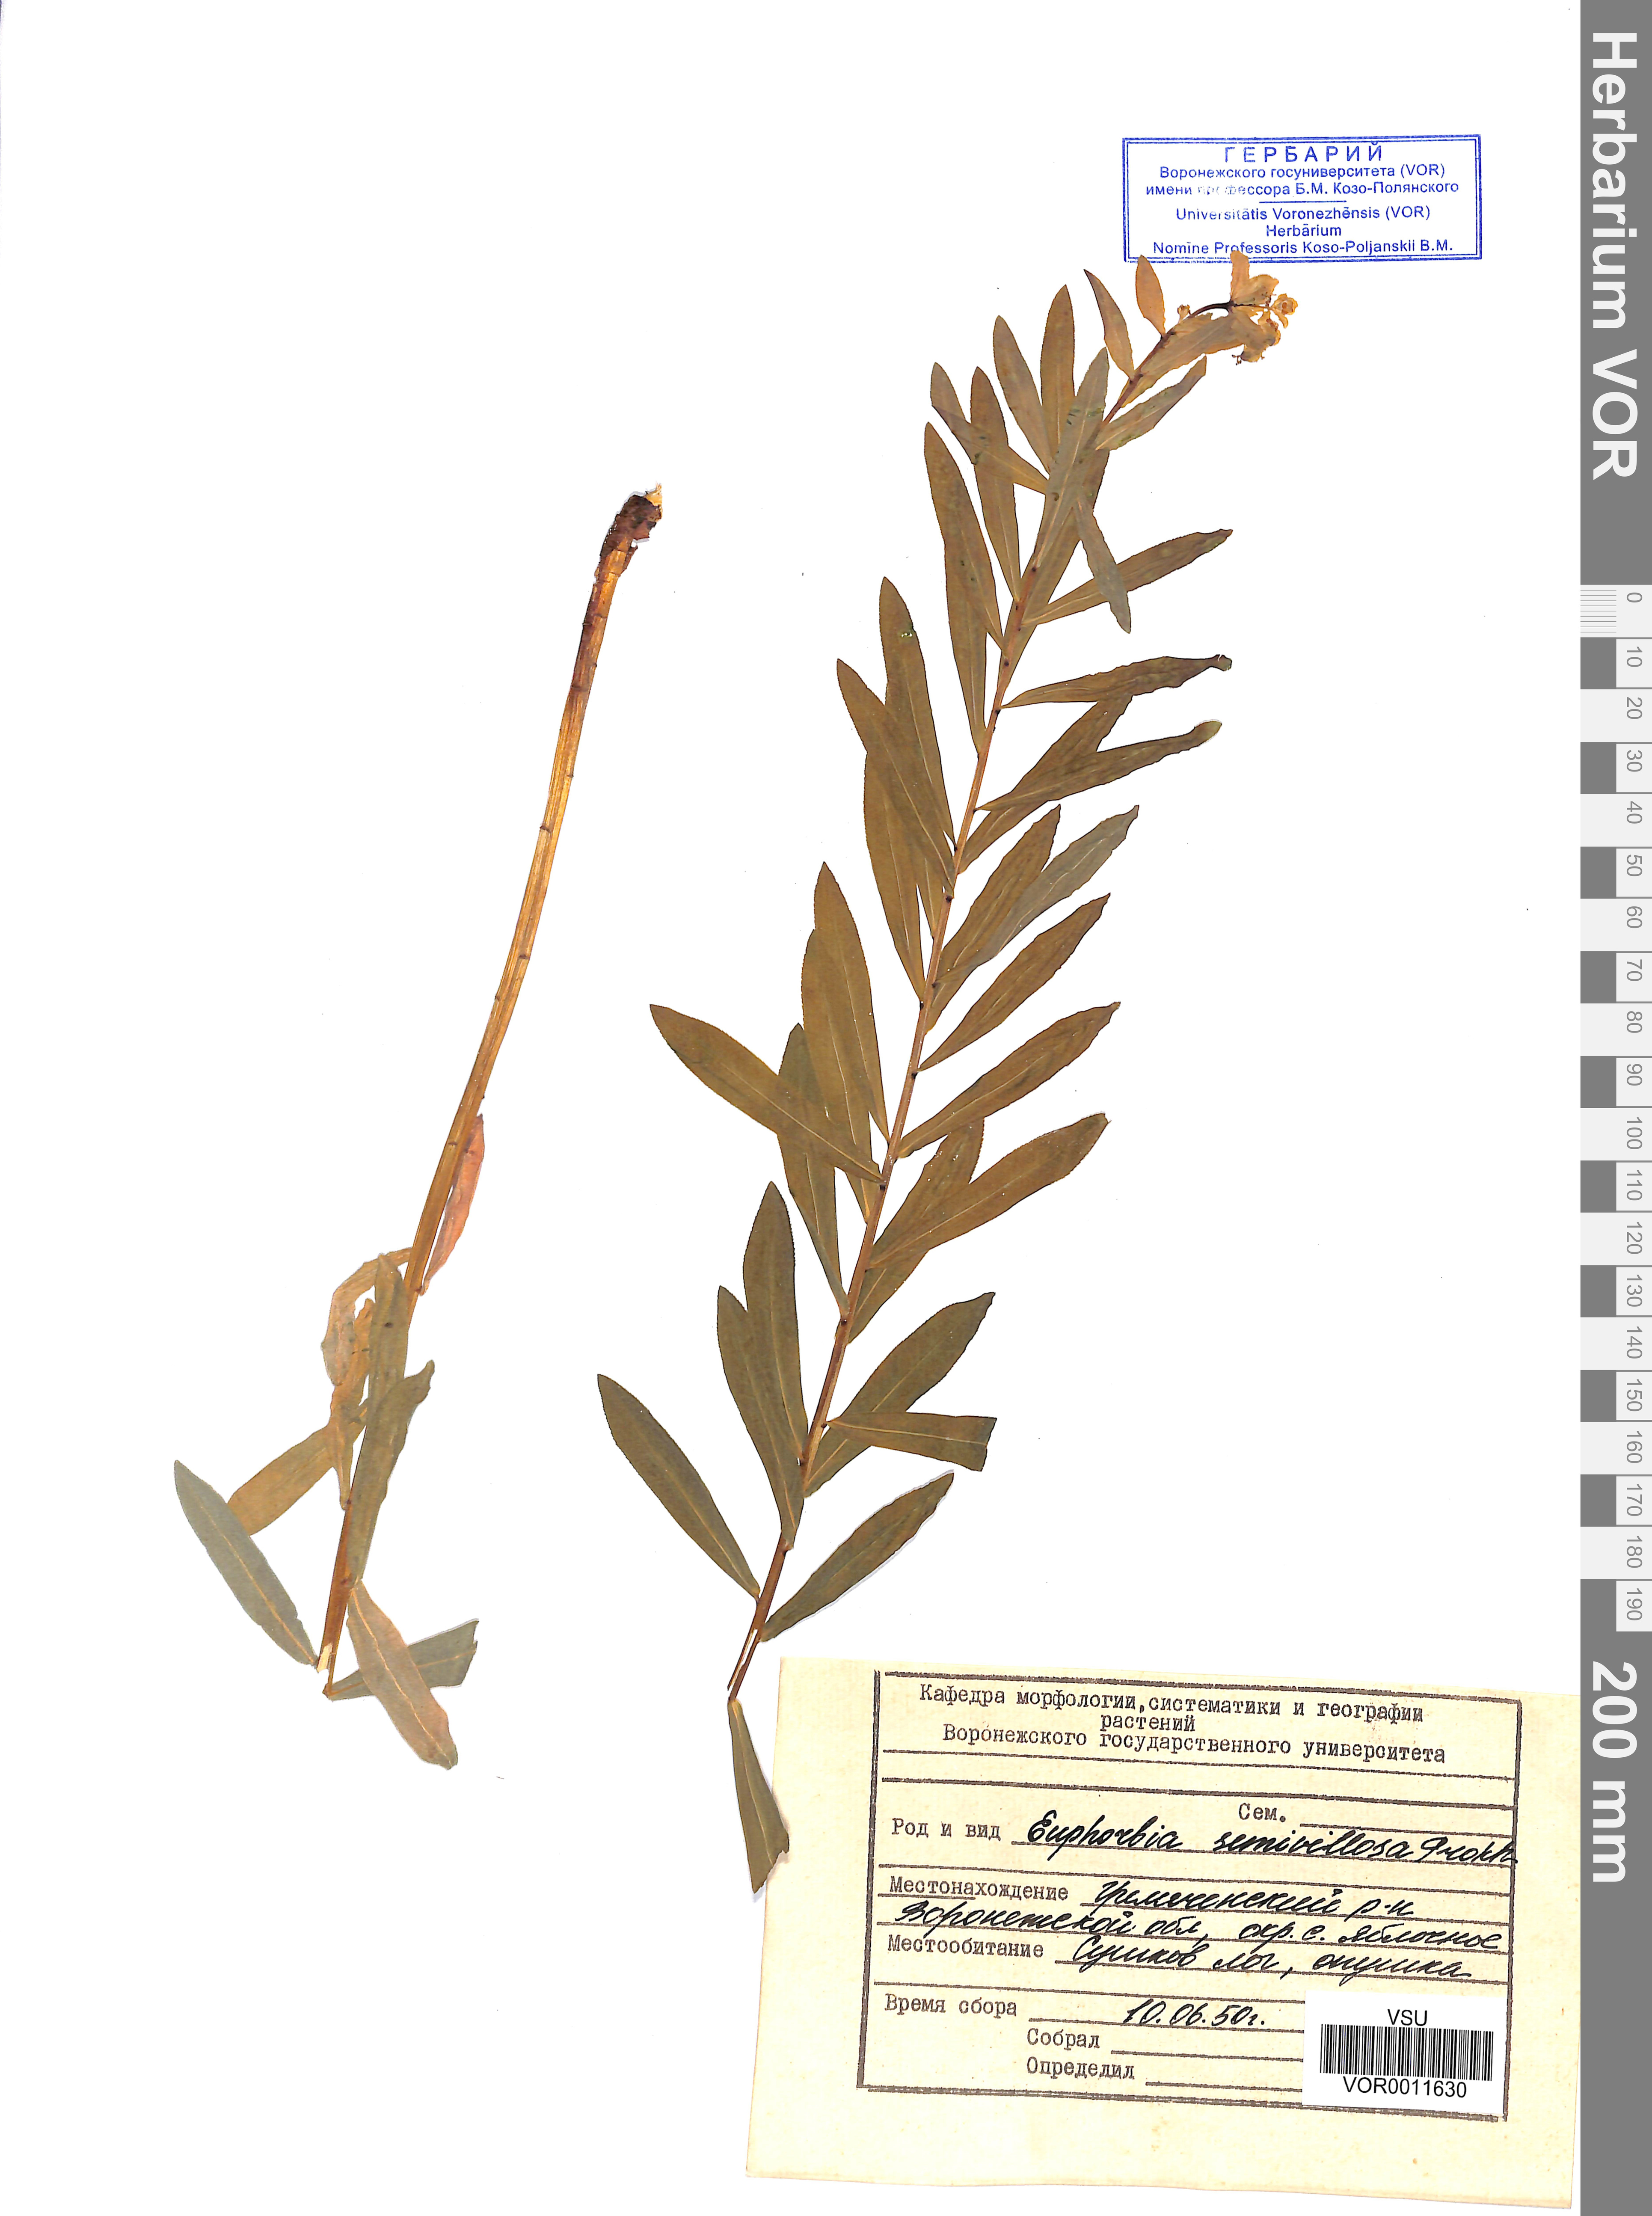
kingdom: Plantae
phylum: Tracheophyta
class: Magnoliopsida
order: Malpighiales
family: Euphorbiaceae
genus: Euphorbia
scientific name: Euphorbia semivillosa
